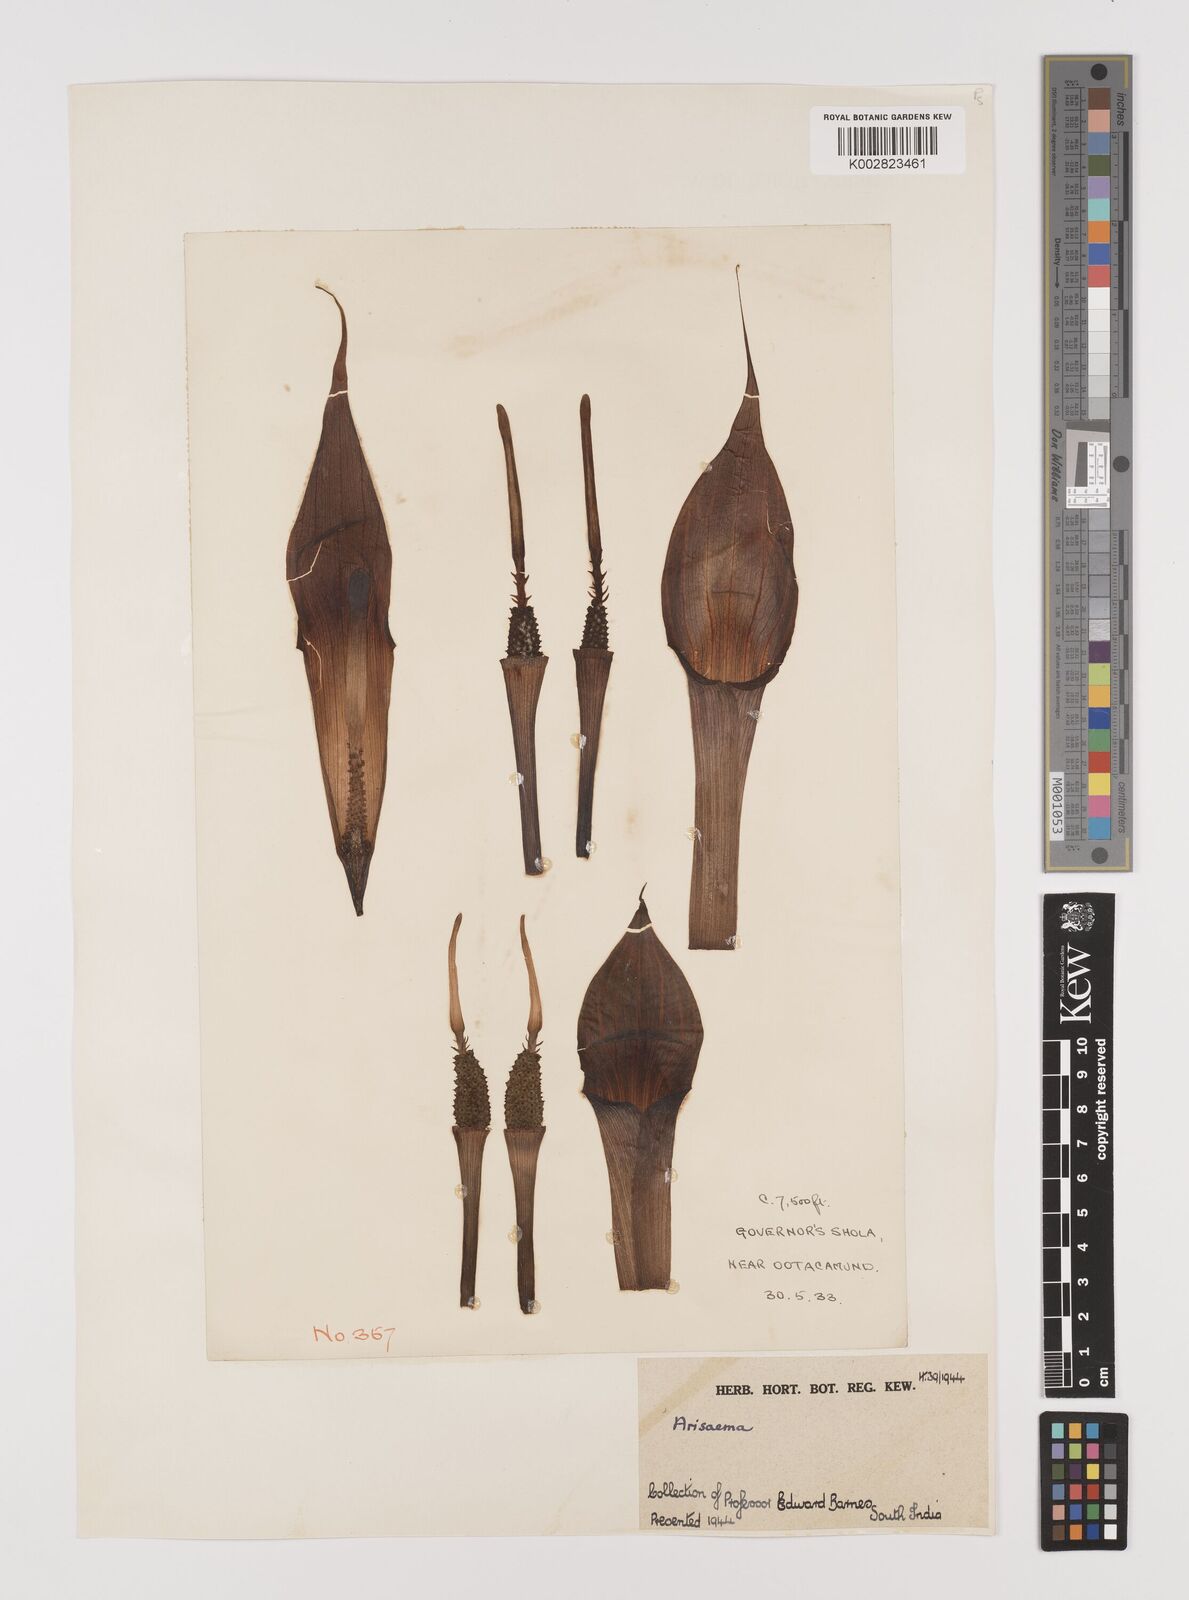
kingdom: Plantae
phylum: Tracheophyta
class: Liliopsida
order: Alismatales
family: Araceae
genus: Arisaema
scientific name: Arisaema
